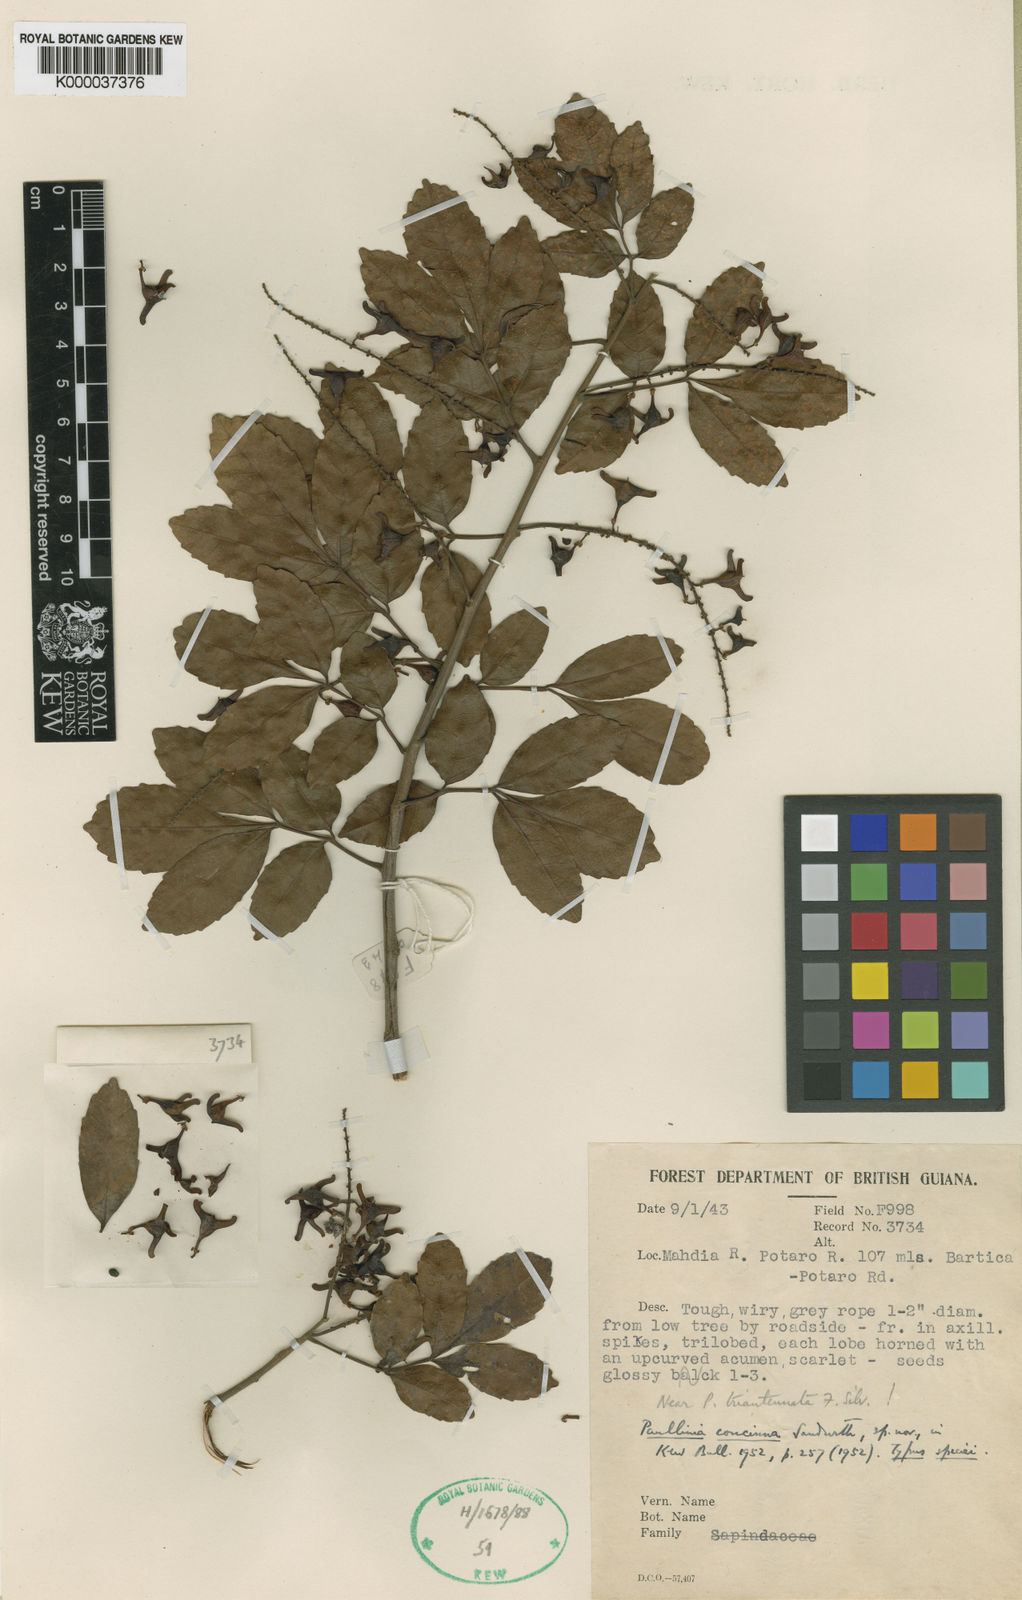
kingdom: Plantae
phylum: Tracheophyta
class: Magnoliopsida
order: Sapindales
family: Sapindaceae
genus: Paullinia
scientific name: Paullinia isoptera
